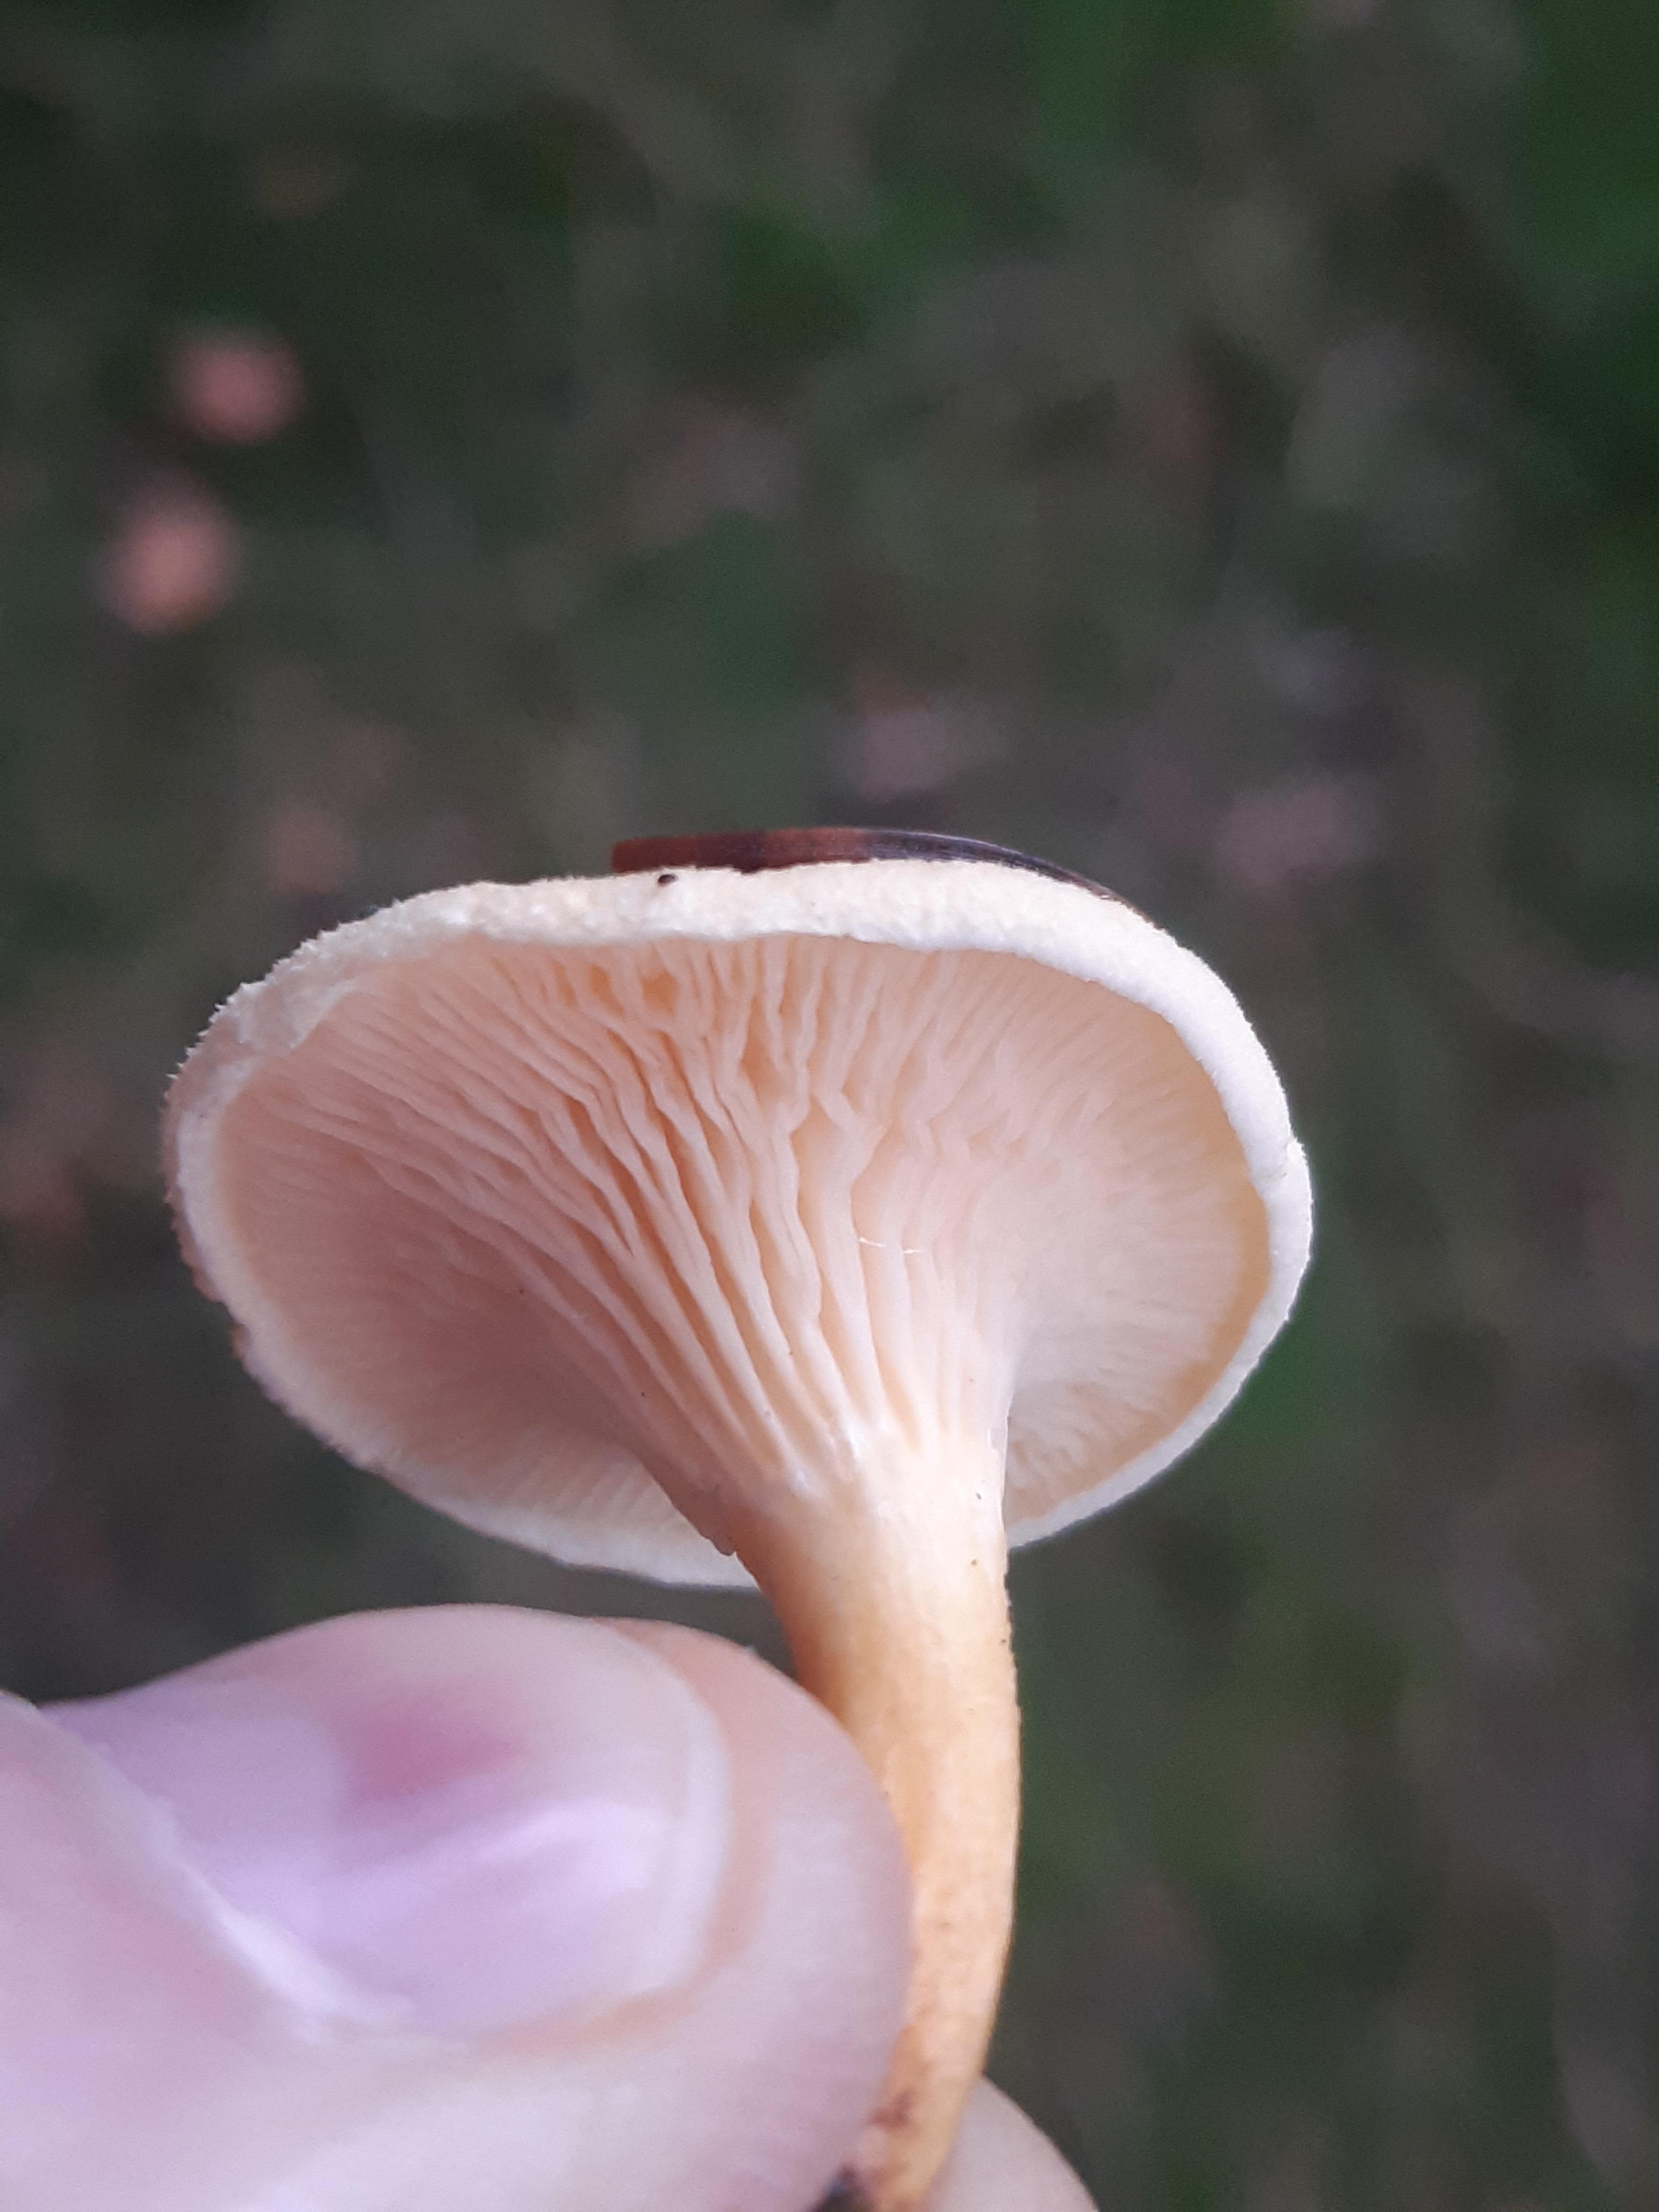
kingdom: Fungi
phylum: Basidiomycota
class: Agaricomycetes
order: Boletales
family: Hygrophoropsidaceae
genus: Hygrophoropsis
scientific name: Hygrophoropsis pallida
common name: bleg orangekantarel
